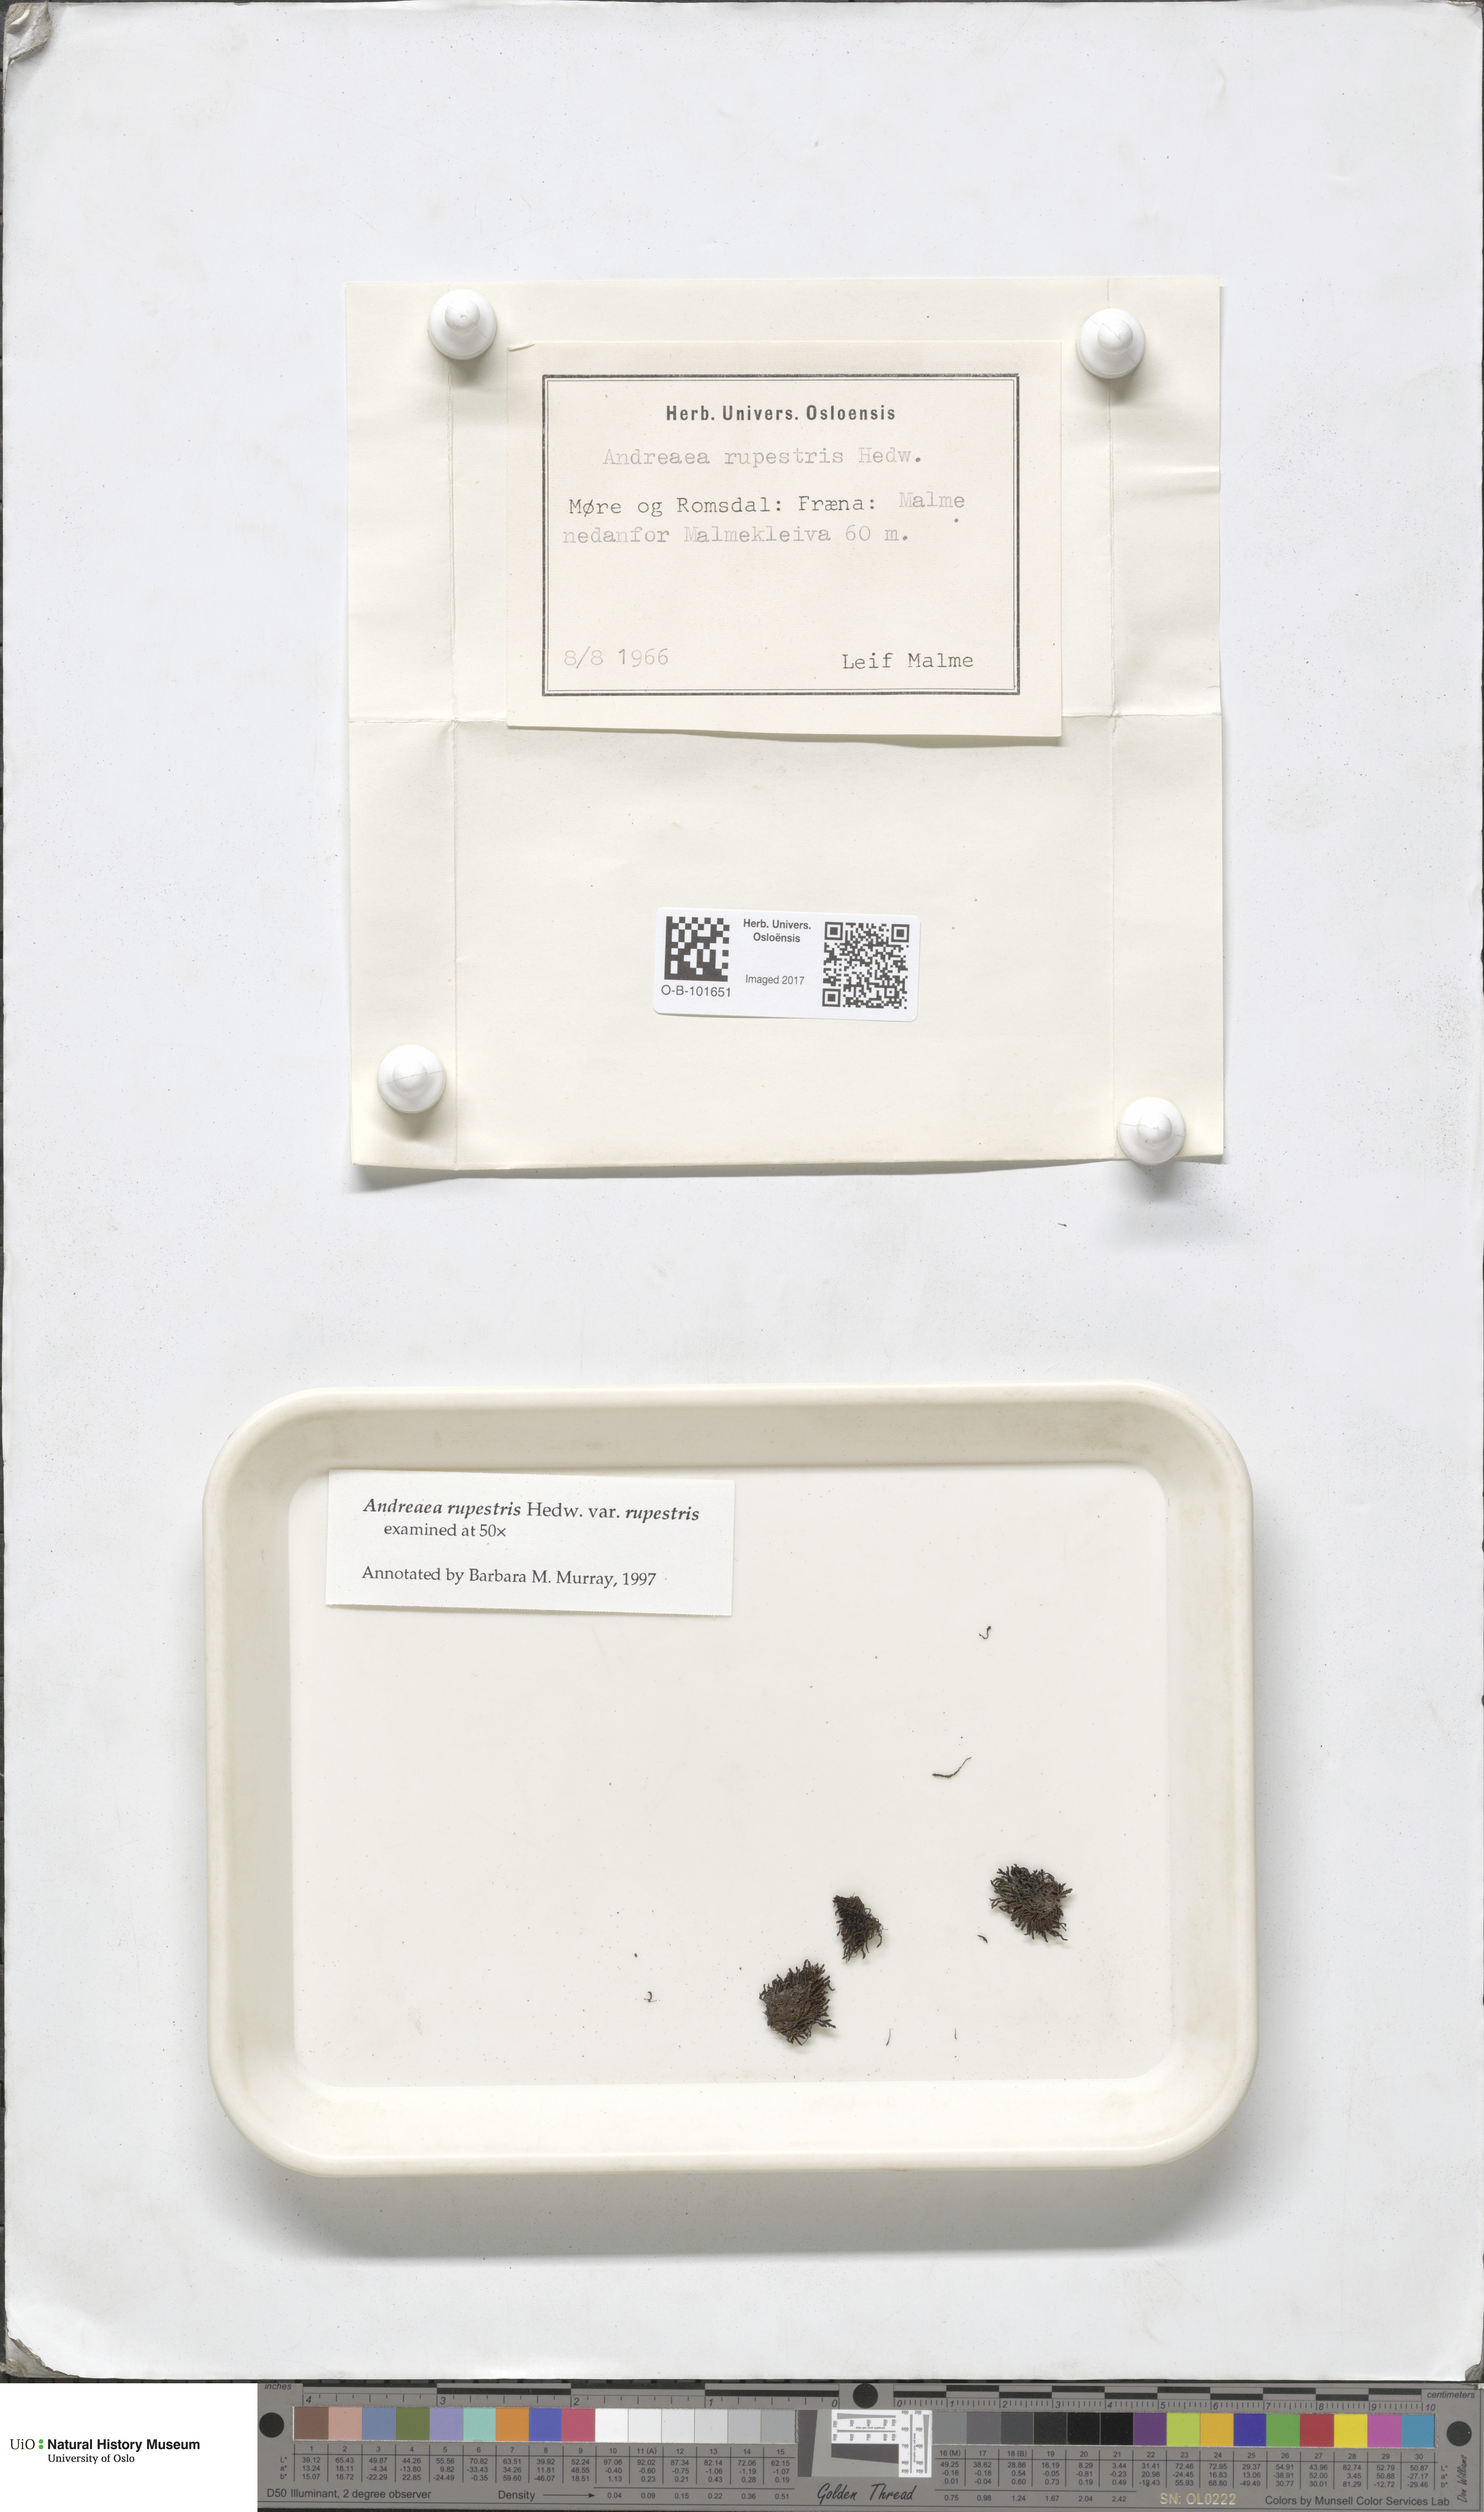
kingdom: Plantae
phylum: Bryophyta
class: Andreaeopsida
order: Andreaeales
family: Andreaeaceae
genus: Andreaea
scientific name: Andreaea rupestris
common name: Black rock moss
